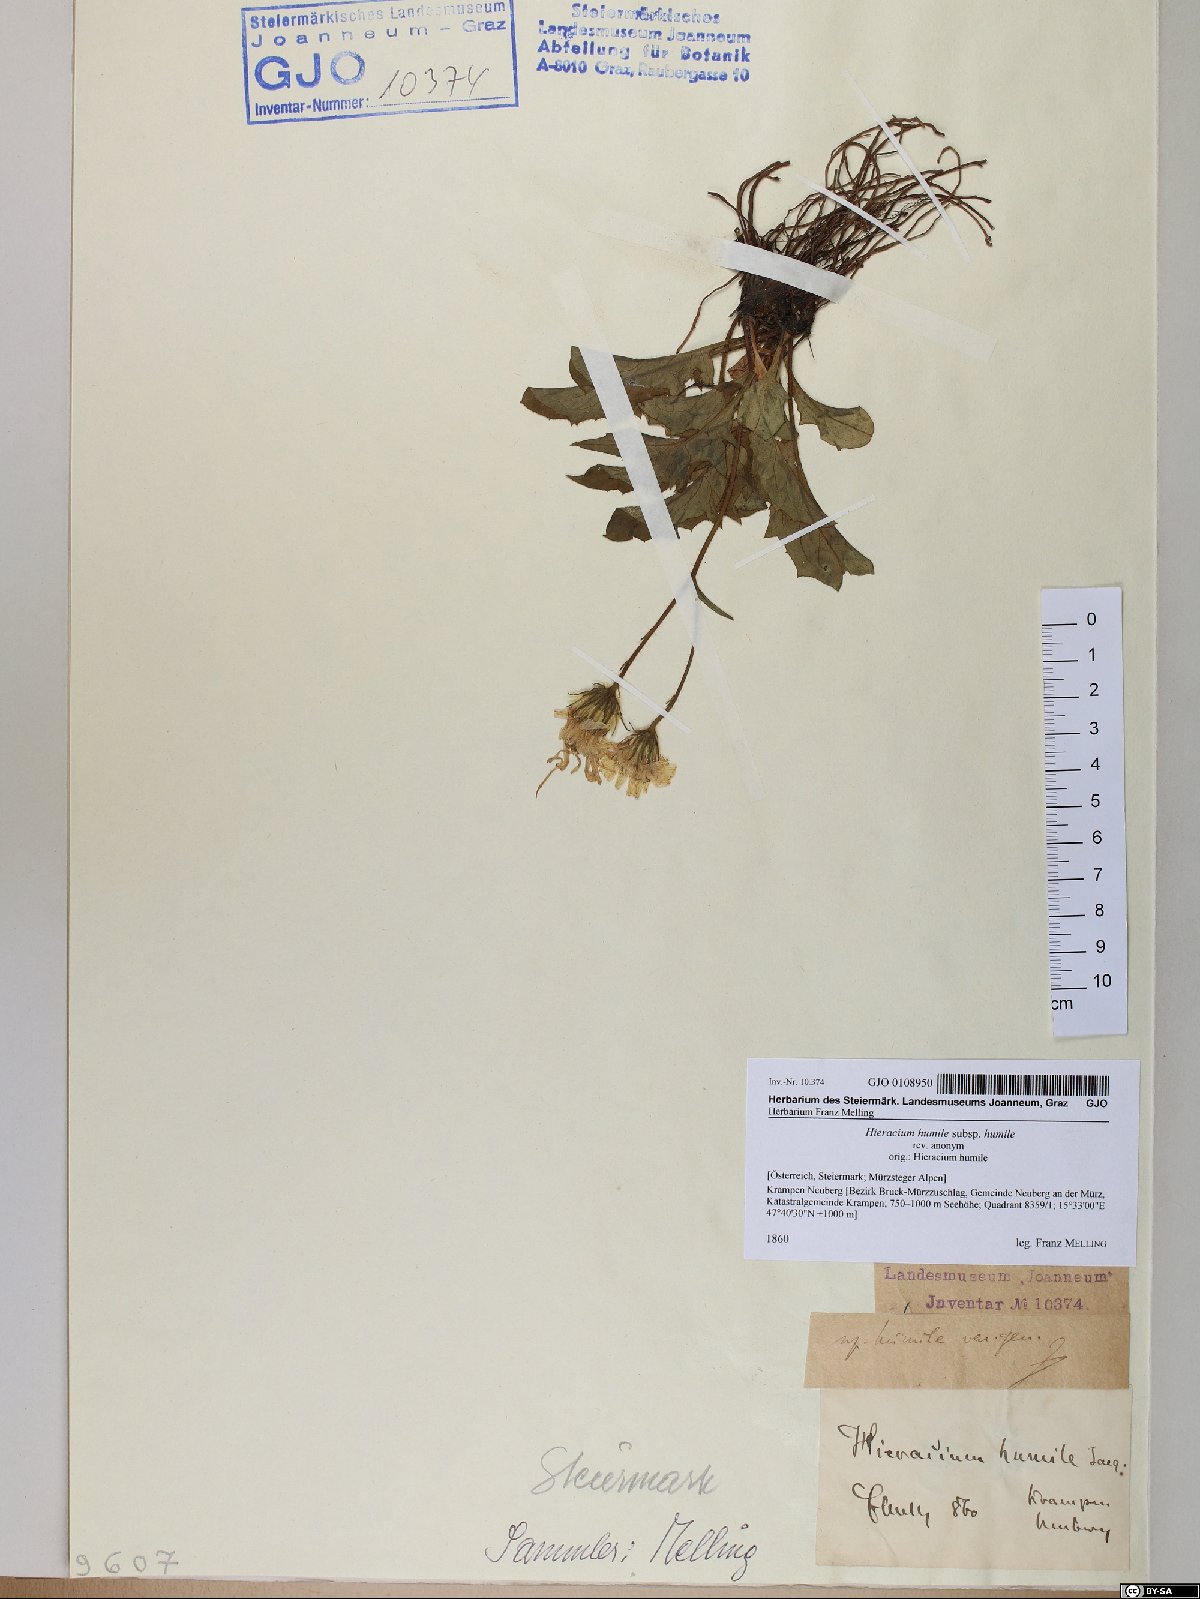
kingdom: Plantae
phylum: Tracheophyta
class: Magnoliopsida
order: Asterales
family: Asteraceae
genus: Hieracium
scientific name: Hieracium humile
